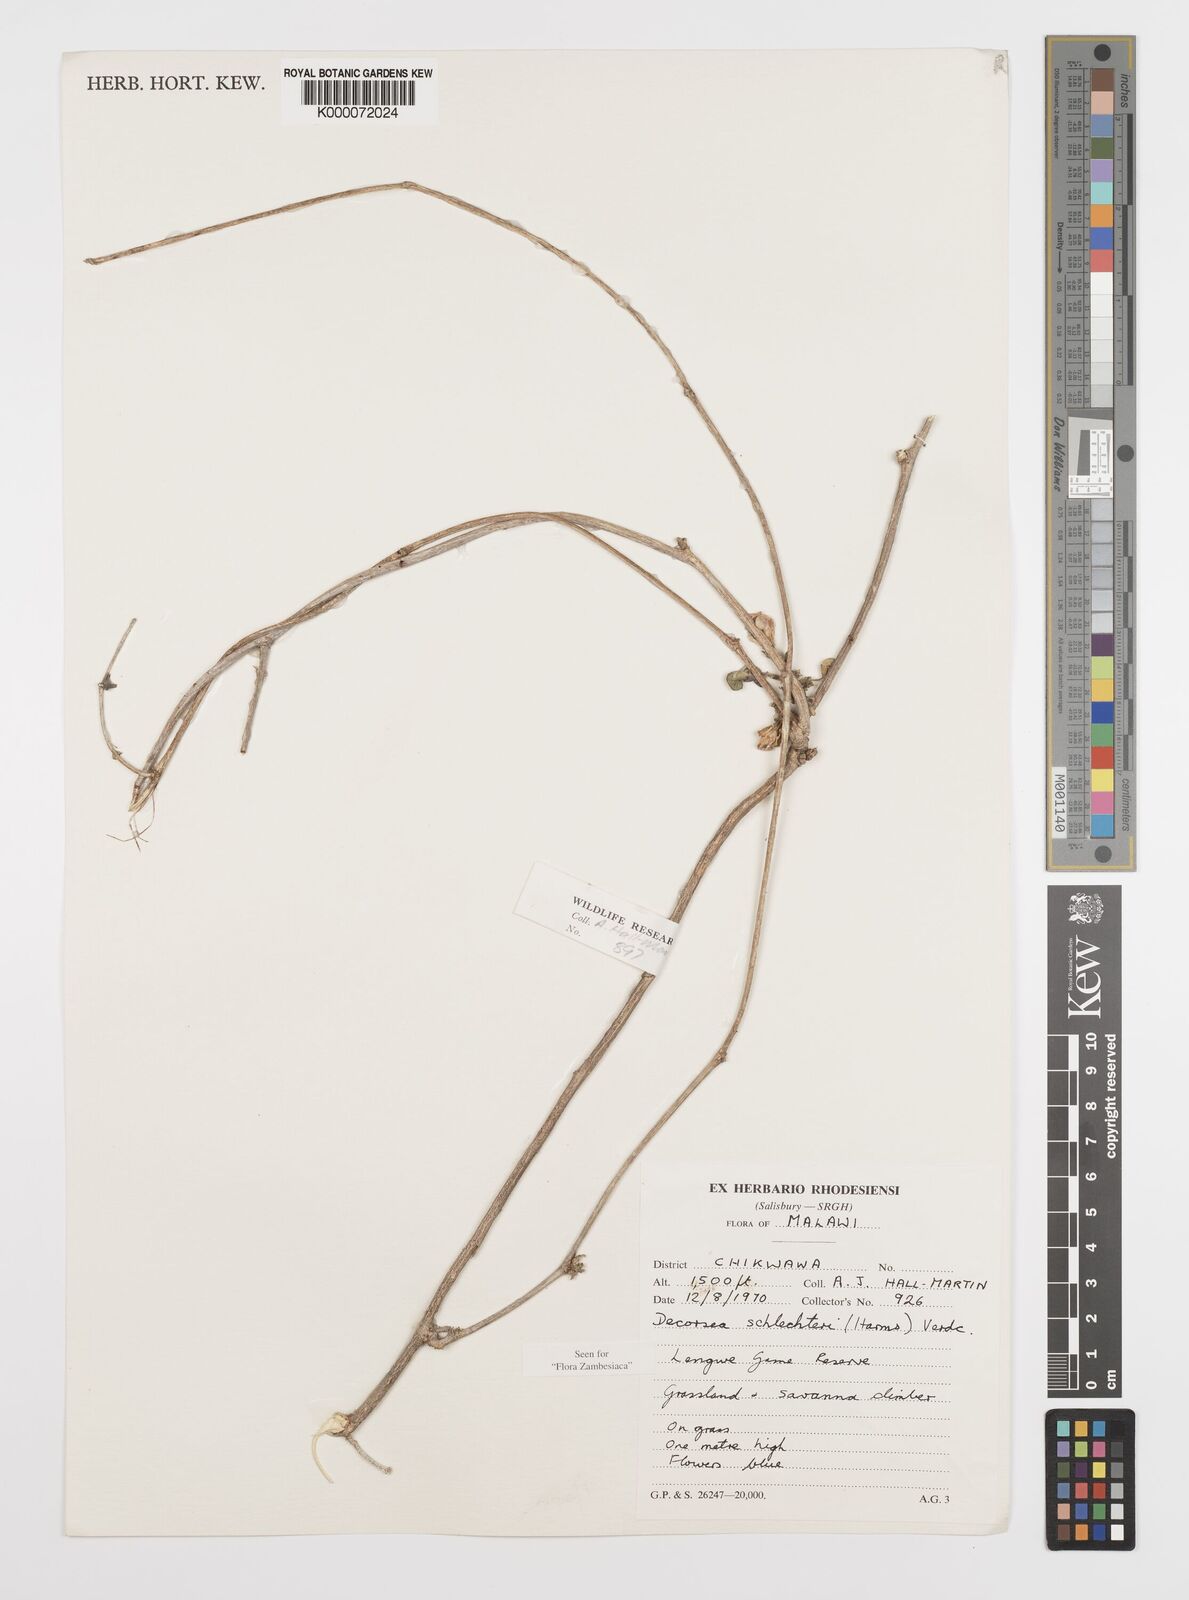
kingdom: Plantae
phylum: Tracheophyta
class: Magnoliopsida
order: Fabales
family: Fabaceae
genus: Decorsea
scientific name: Decorsea schlechteri
